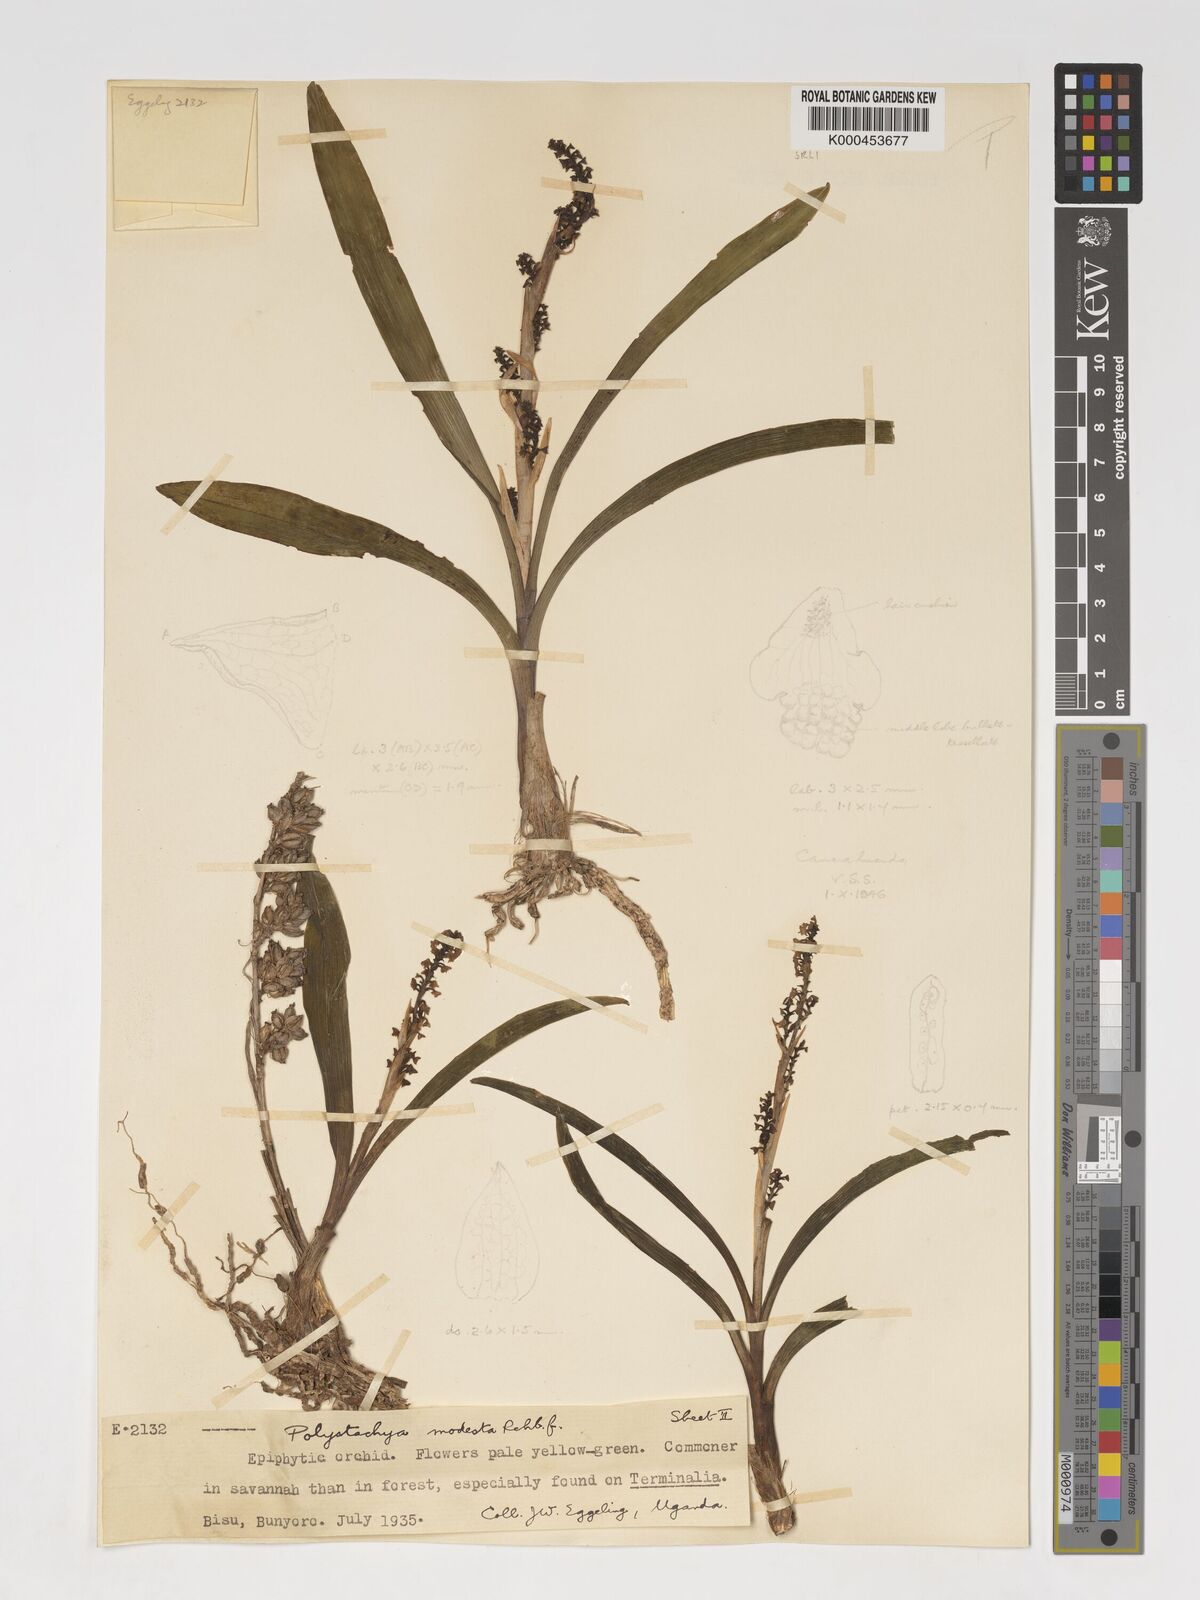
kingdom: Plantae
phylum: Tracheophyta
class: Liliopsida
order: Asparagales
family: Orchidaceae
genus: Polystachya
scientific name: Polystachya modesta
